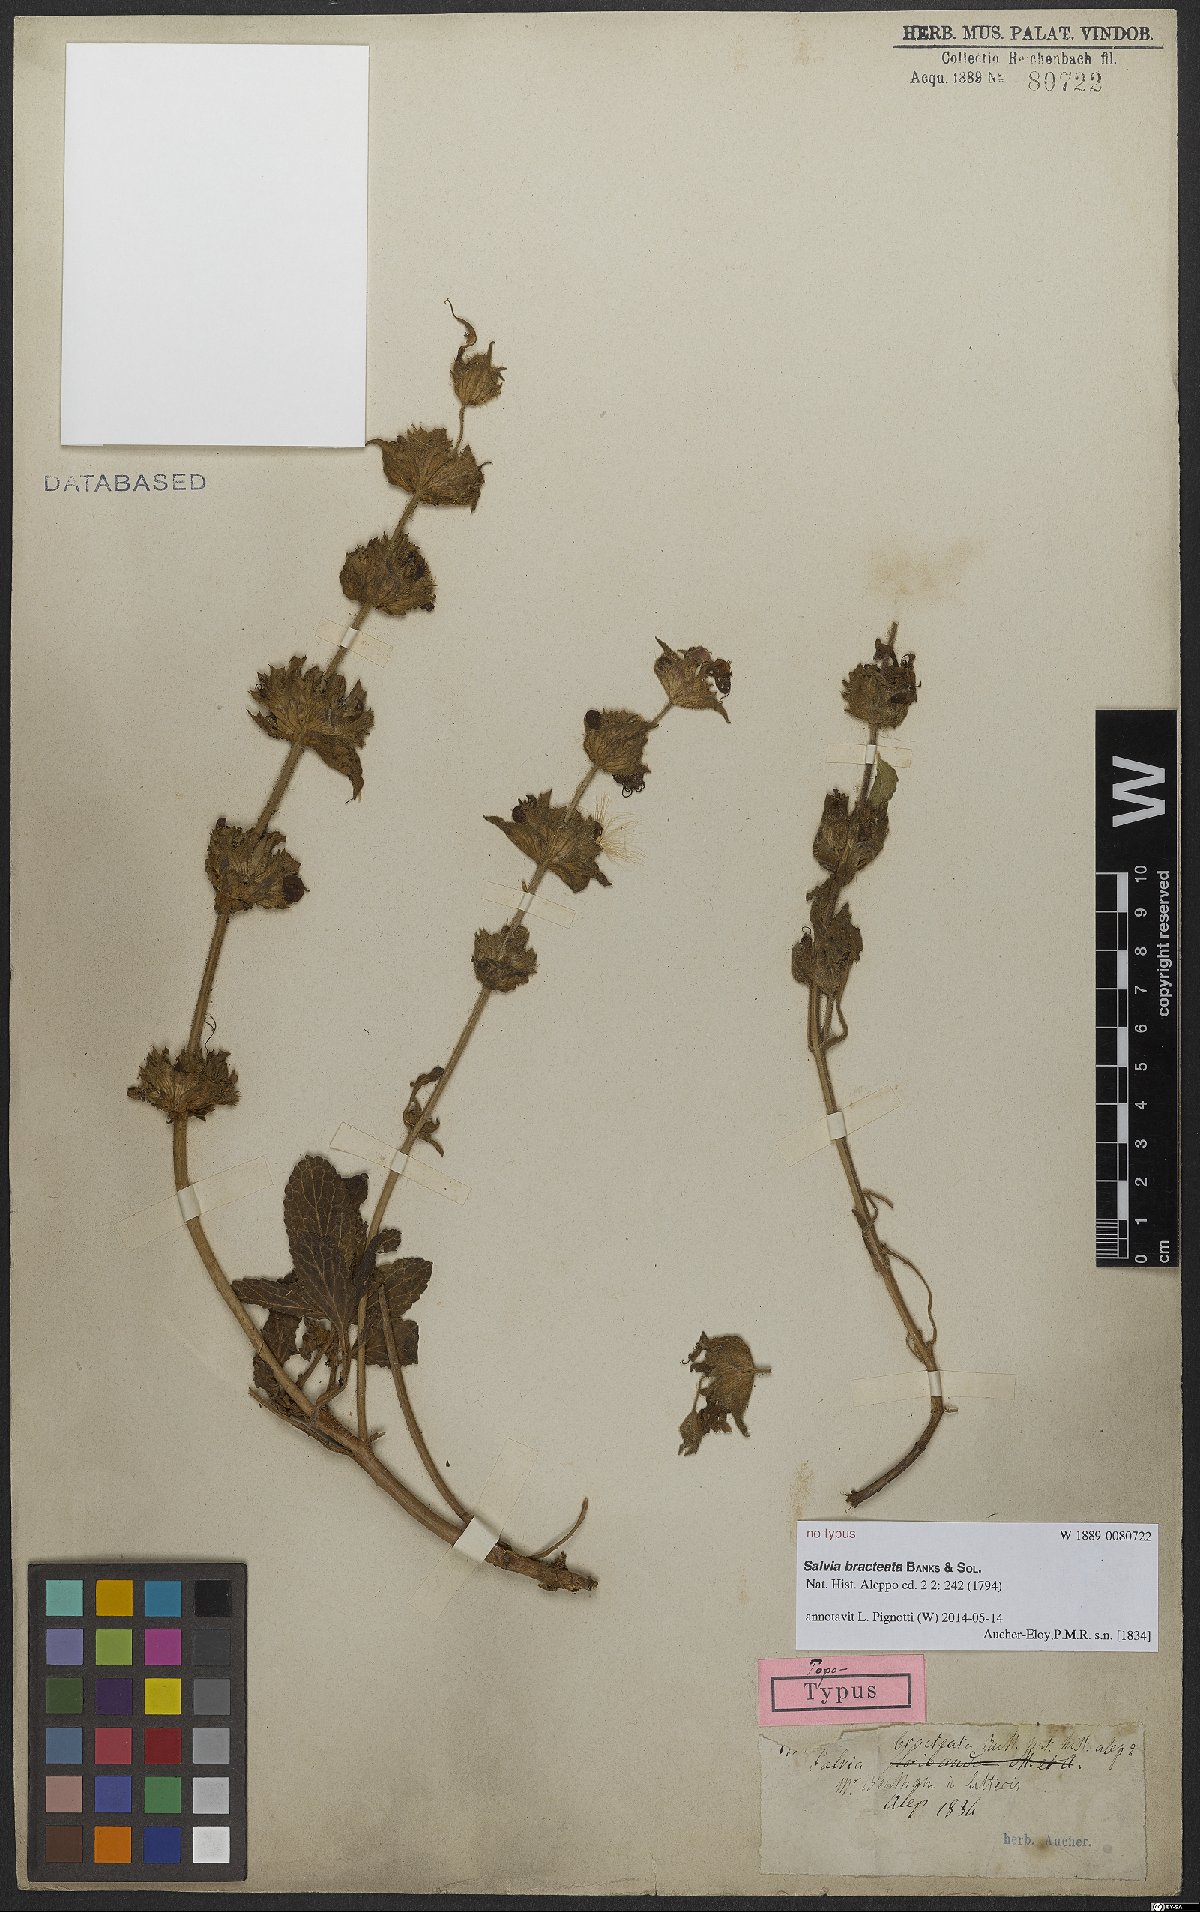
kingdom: Plantae
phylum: Tracheophyta
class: Magnoliopsida
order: Lamiales
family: Lamiaceae
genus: Salvia
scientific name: Salvia bracteata
